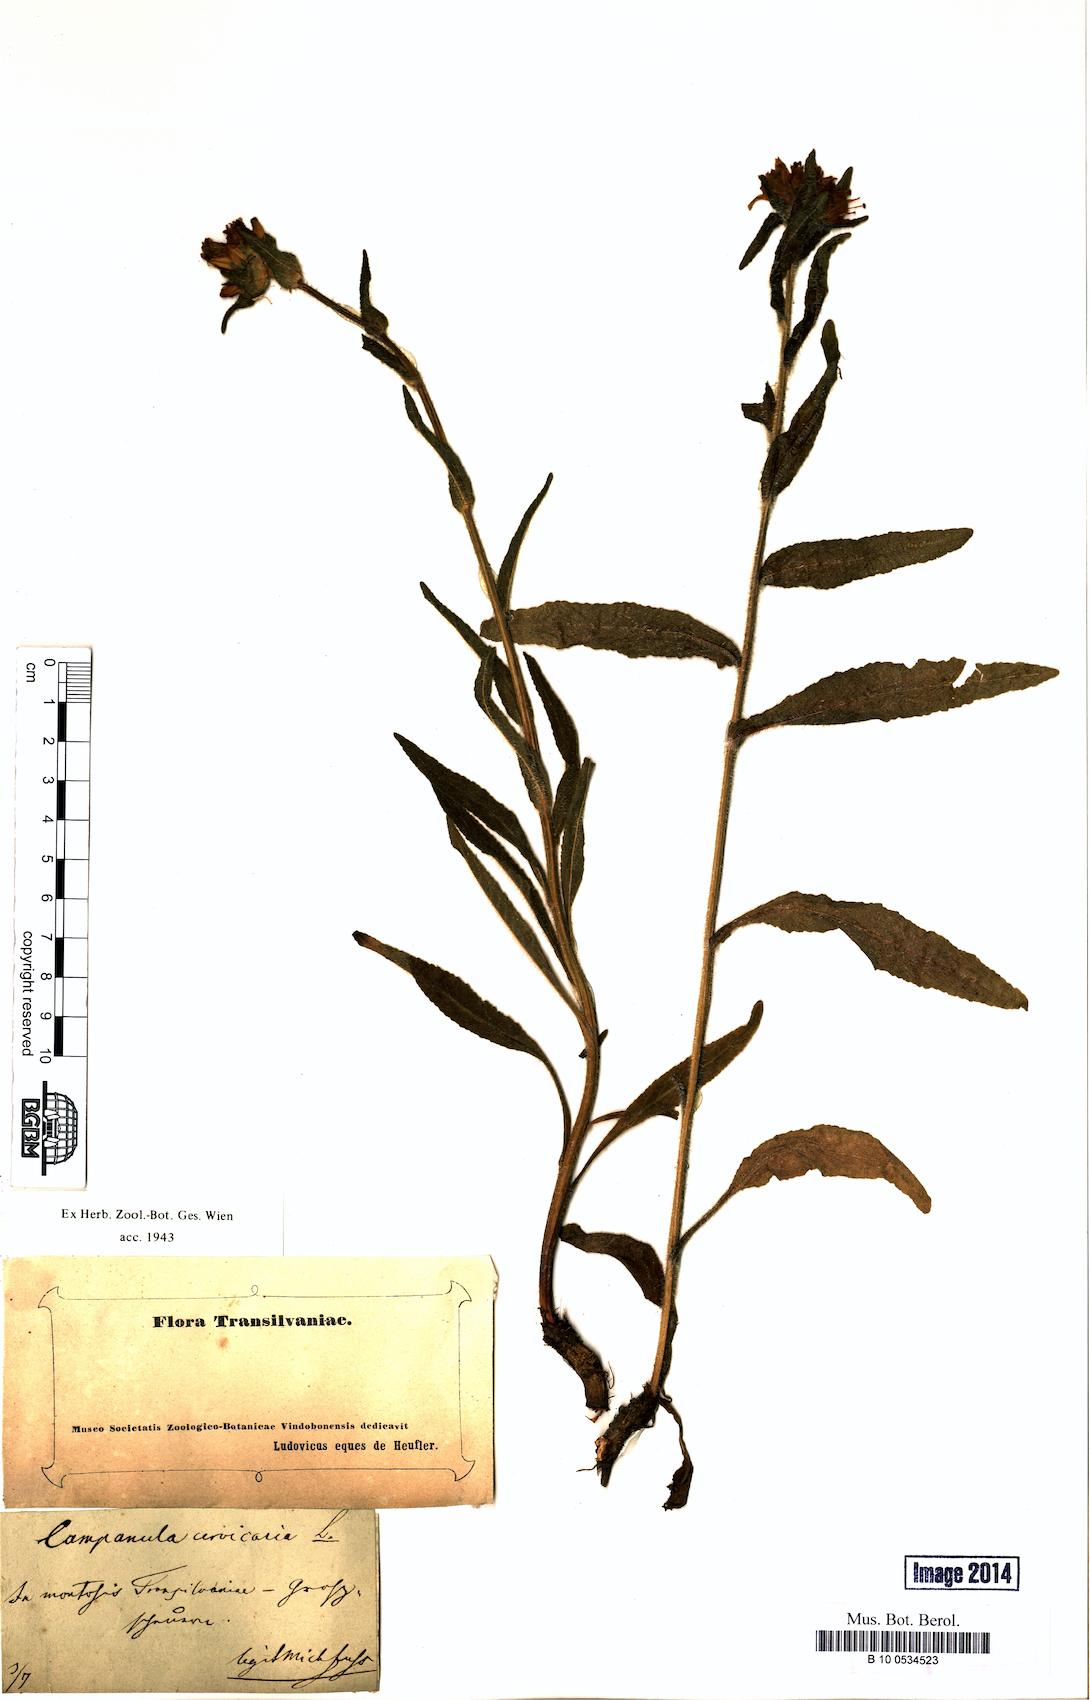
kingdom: Plantae
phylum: Tracheophyta
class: Magnoliopsida
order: Asterales
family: Campanulaceae
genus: Campanula
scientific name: Campanula cervicaria
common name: Bristly bellflower
